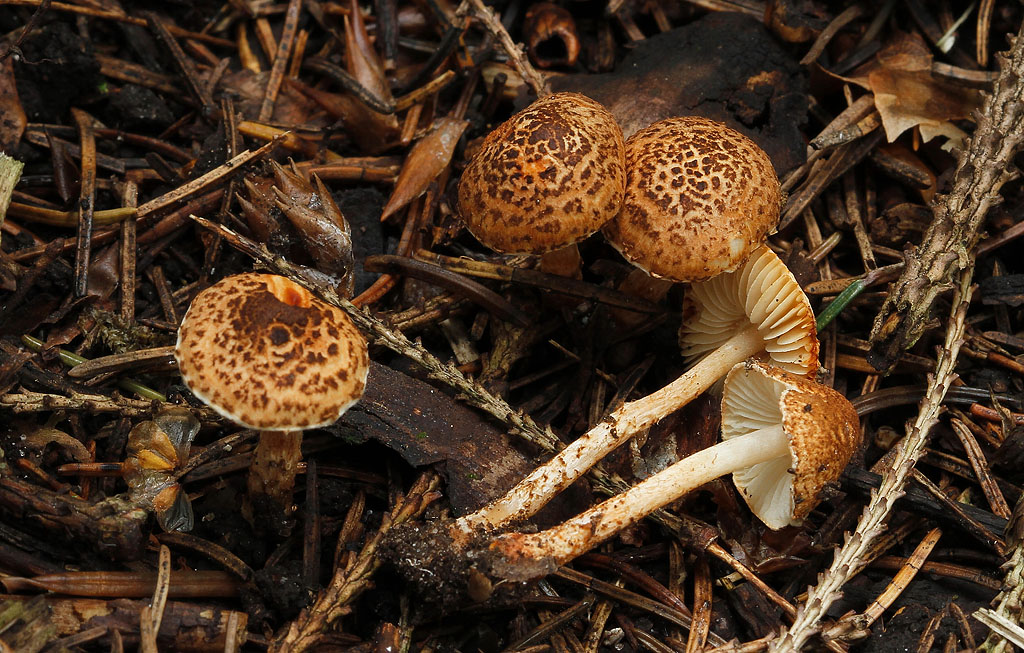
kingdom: Fungi
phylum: Basidiomycota
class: Agaricomycetes
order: Agaricales
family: Agaricaceae
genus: Lepiota
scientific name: Lepiota castanea
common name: kastaniebrun parasolhat
